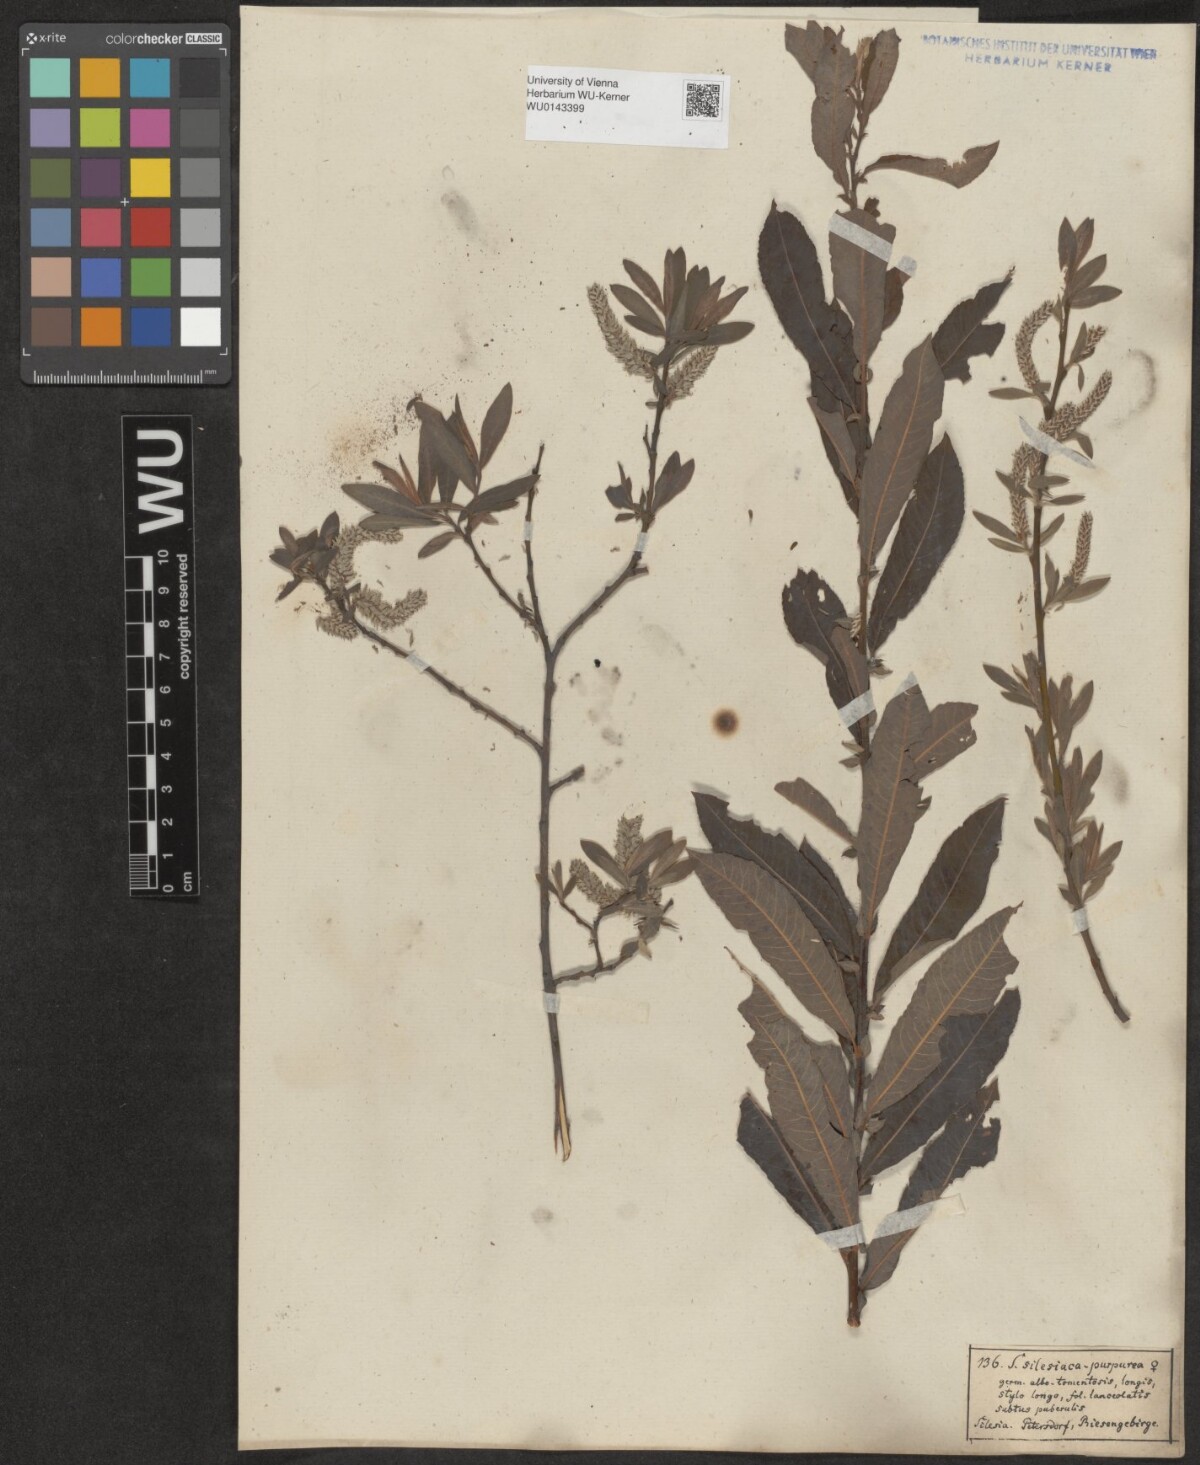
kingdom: Plantae
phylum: Tracheophyta
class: Magnoliopsida
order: Malpighiales
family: Salicaceae
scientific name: Salicaceae
